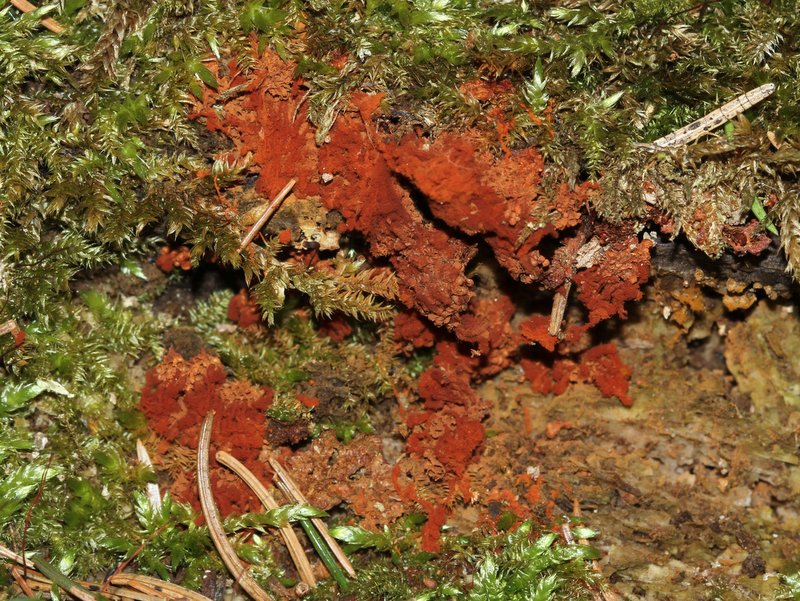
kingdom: Protozoa
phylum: Mycetozoa
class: Myxomycetes
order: Trichiales
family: Trichiaceae
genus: Metatrichia
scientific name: Metatrichia vesparia
